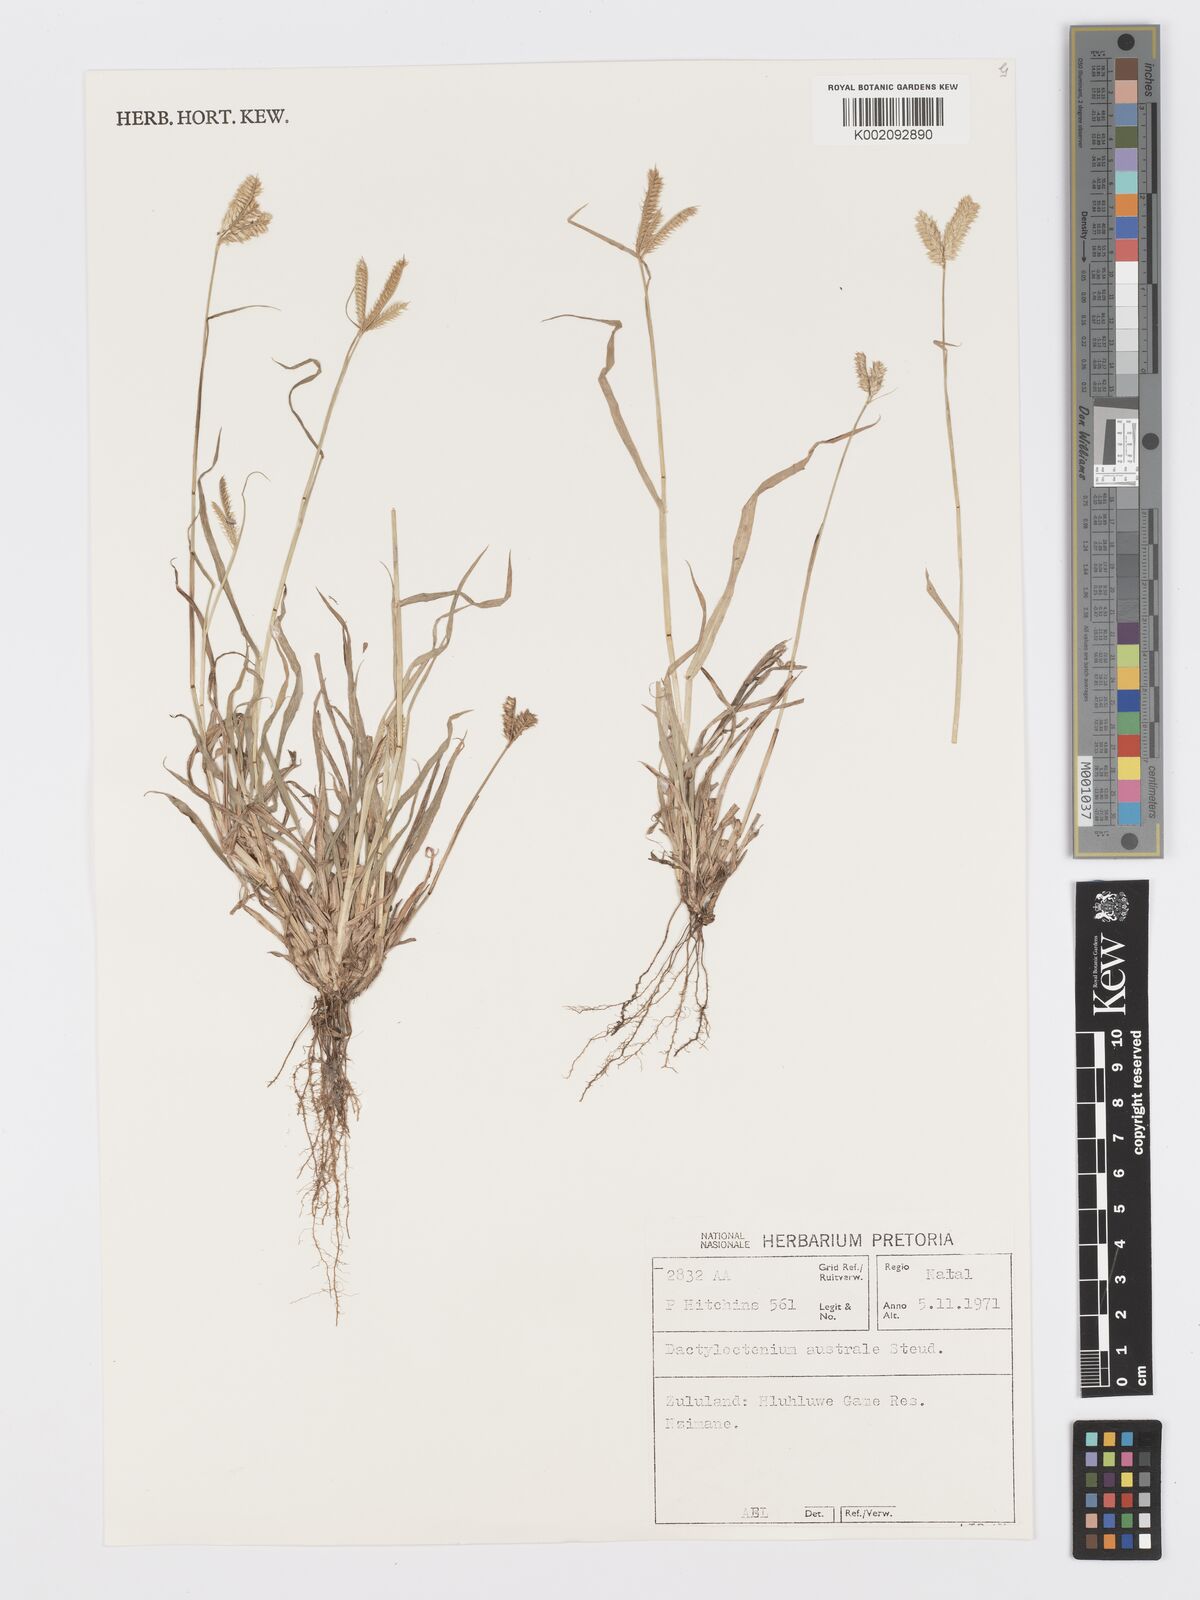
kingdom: Plantae
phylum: Tracheophyta
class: Liliopsida
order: Poales
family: Poaceae
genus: Dactyloctenium
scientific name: Dactyloctenium australe
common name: Durban grass
